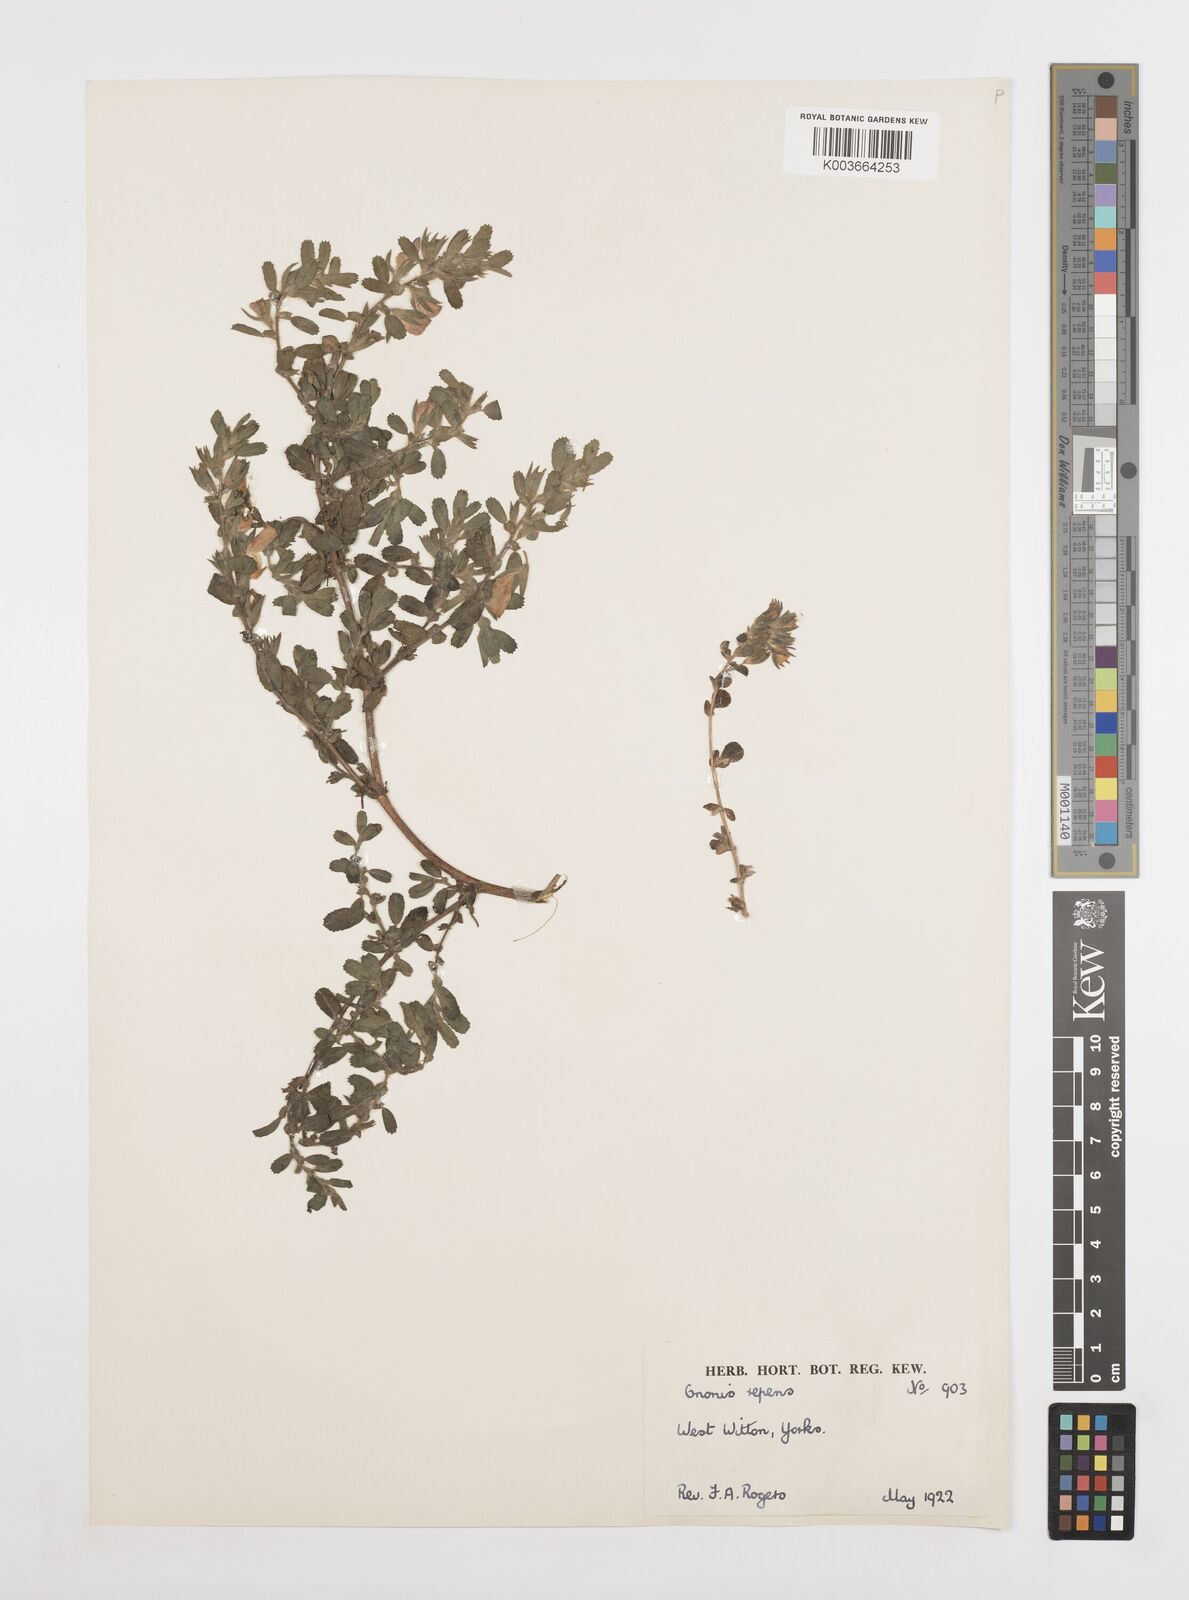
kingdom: Plantae
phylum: Tracheophyta
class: Magnoliopsida
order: Fabales
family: Fabaceae
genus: Ononis
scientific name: Ononis spinosa
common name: Spiny restharrow
